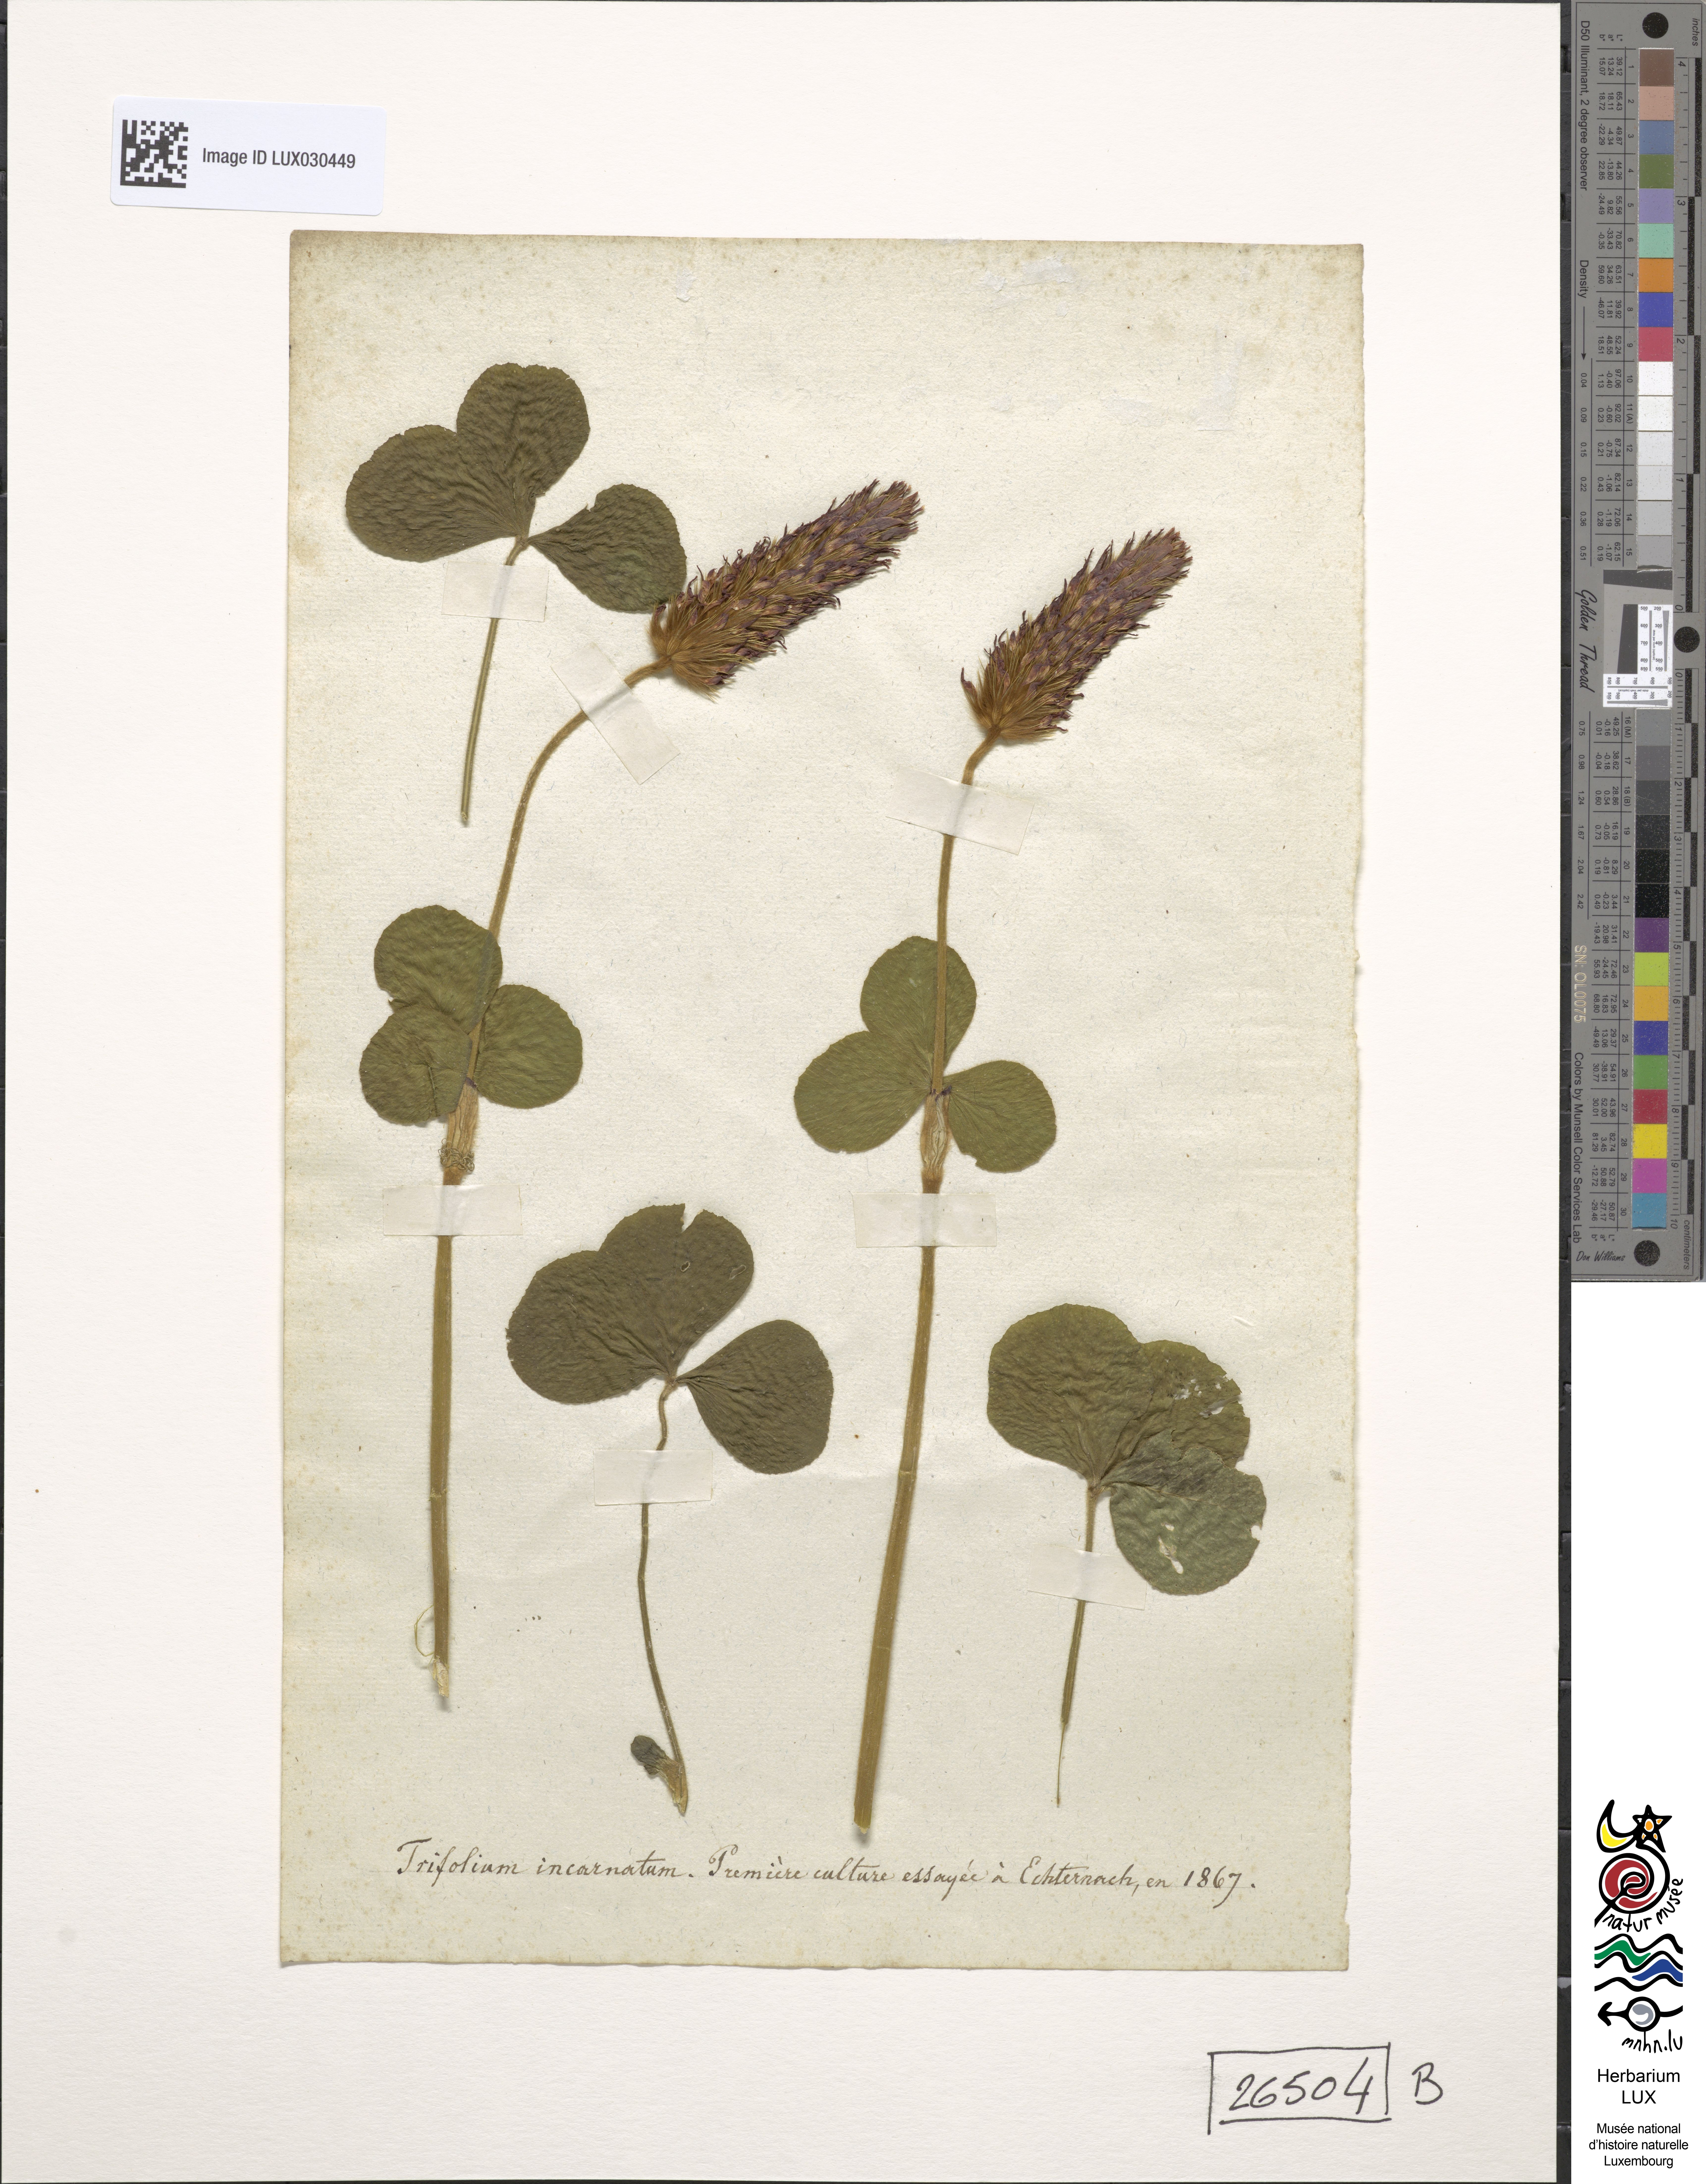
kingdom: Plantae
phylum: Tracheophyta
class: Magnoliopsida
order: Fabales
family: Fabaceae
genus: Trifolium
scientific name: Trifolium incarnatum
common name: Crimson clover
